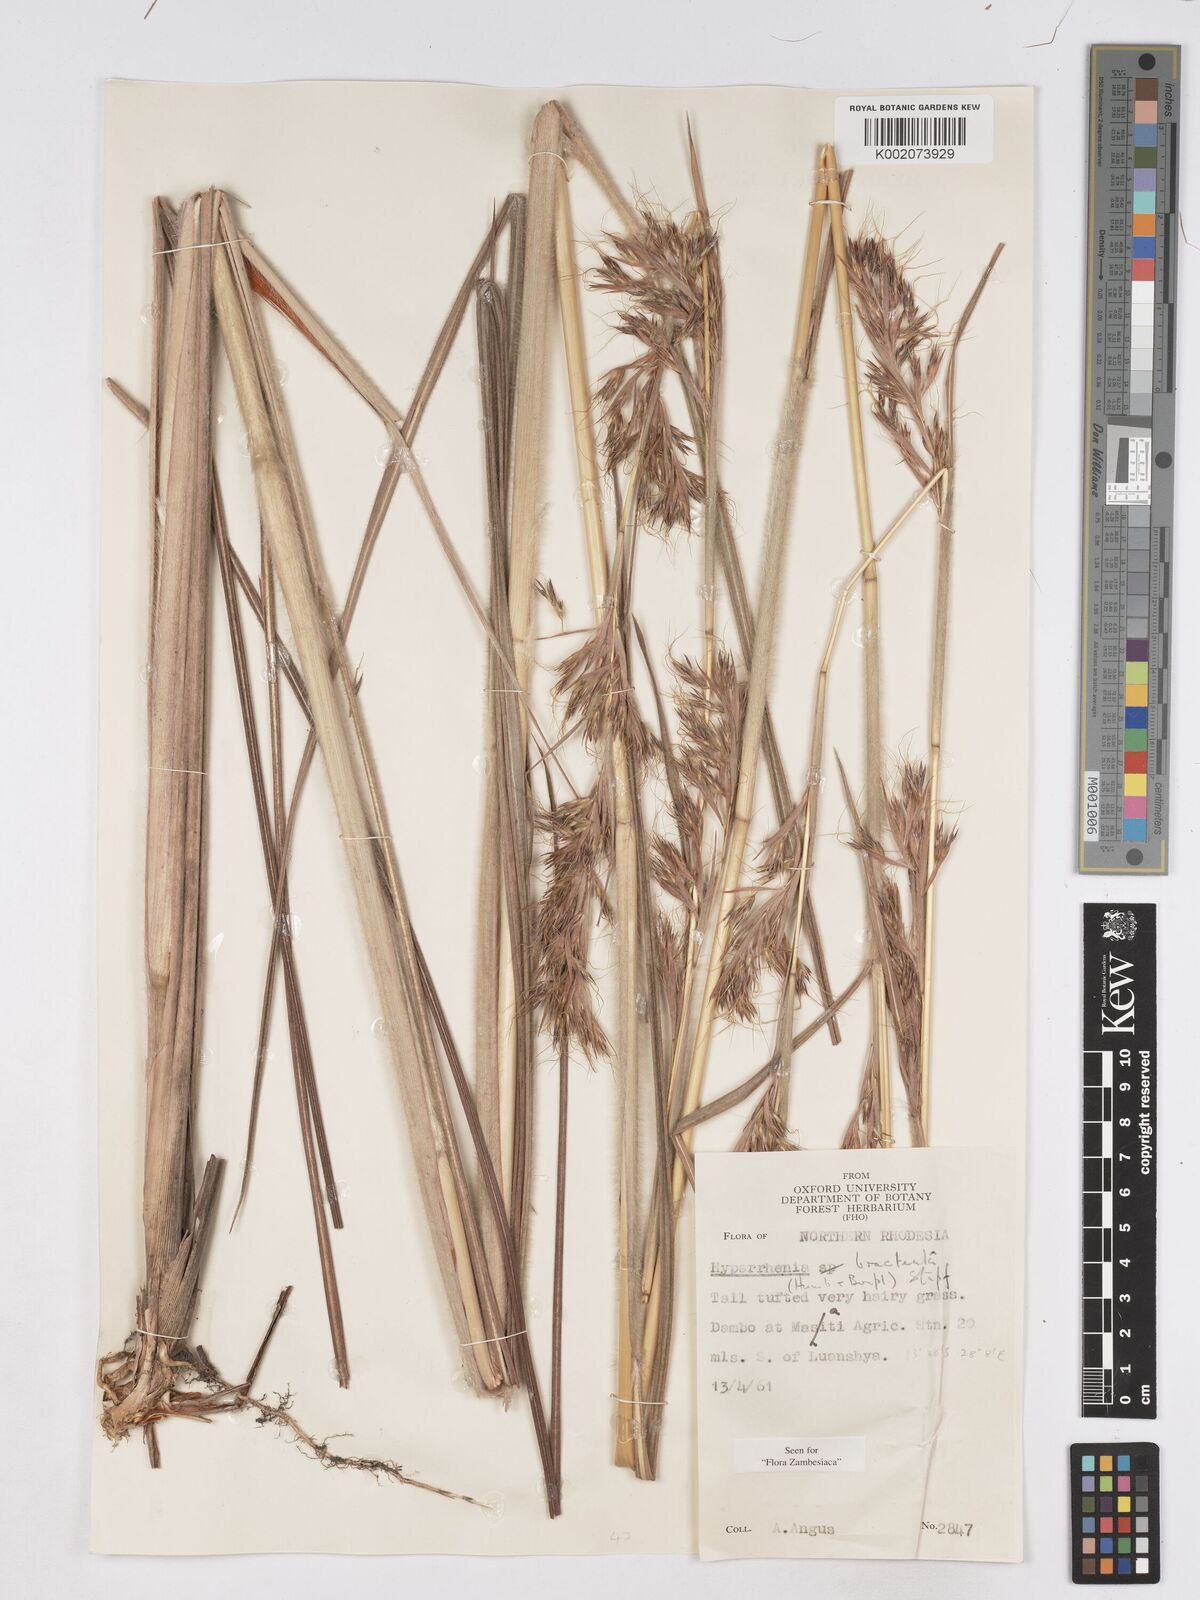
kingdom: Plantae
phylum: Tracheophyta
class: Liliopsida
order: Poales
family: Poaceae
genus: Hyparrhenia
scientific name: Hyparrhenia bracteata
